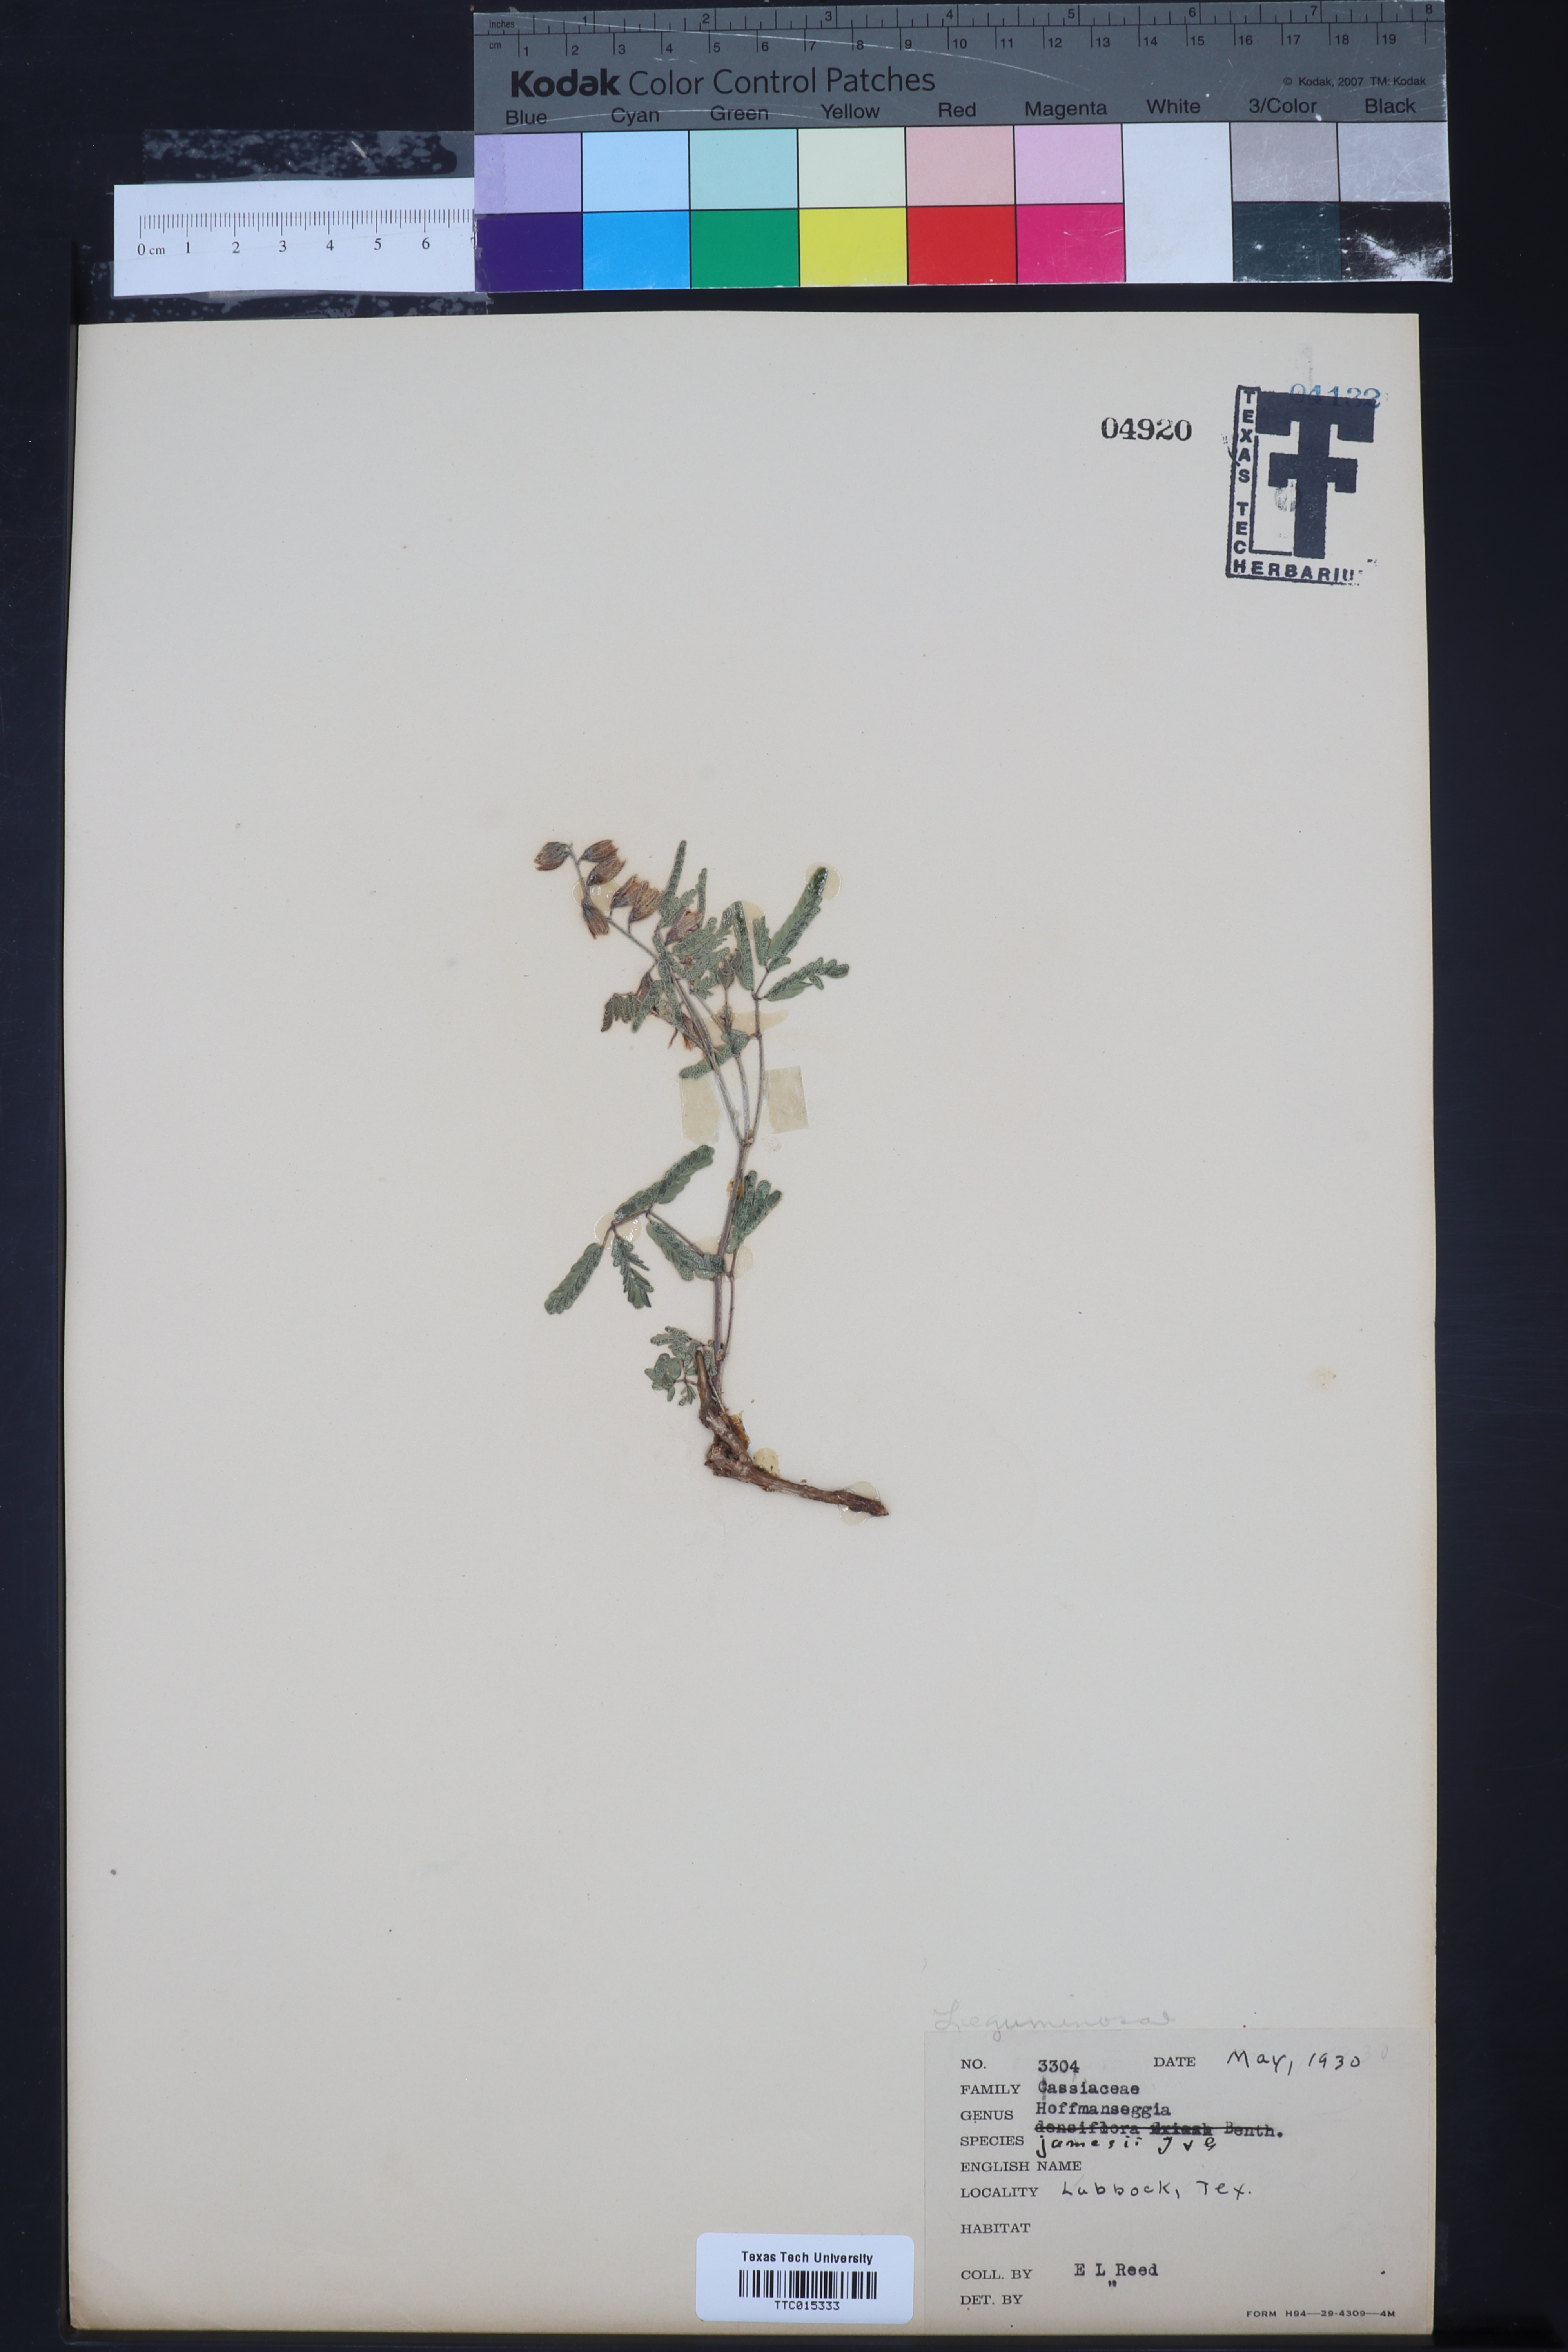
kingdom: Plantae
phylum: Tracheophyta
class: Magnoliopsida
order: Fabales
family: Fabaceae
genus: Pomaria
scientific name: Pomaria jamesii
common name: James' caesalpinia
